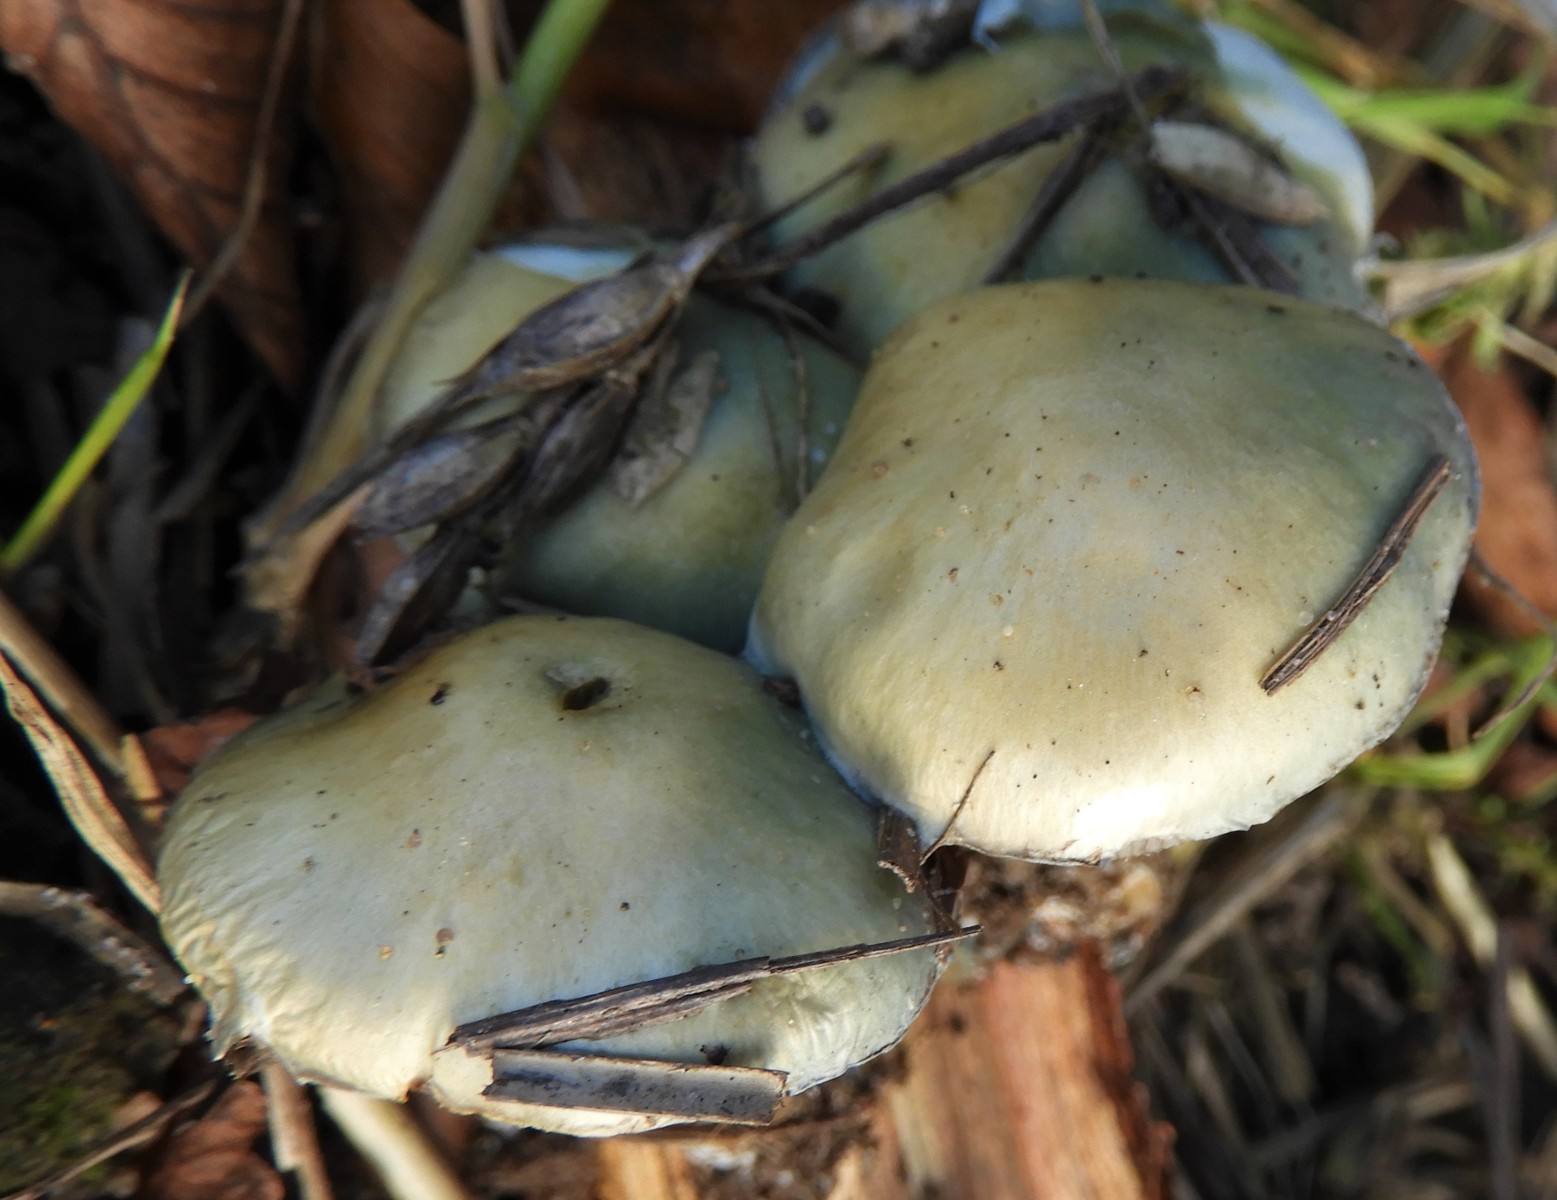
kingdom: Fungi
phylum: Basidiomycota
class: Agaricomycetes
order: Agaricales
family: Strophariaceae
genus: Stropharia
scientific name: Stropharia cyanea
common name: blågrøn bredblad
